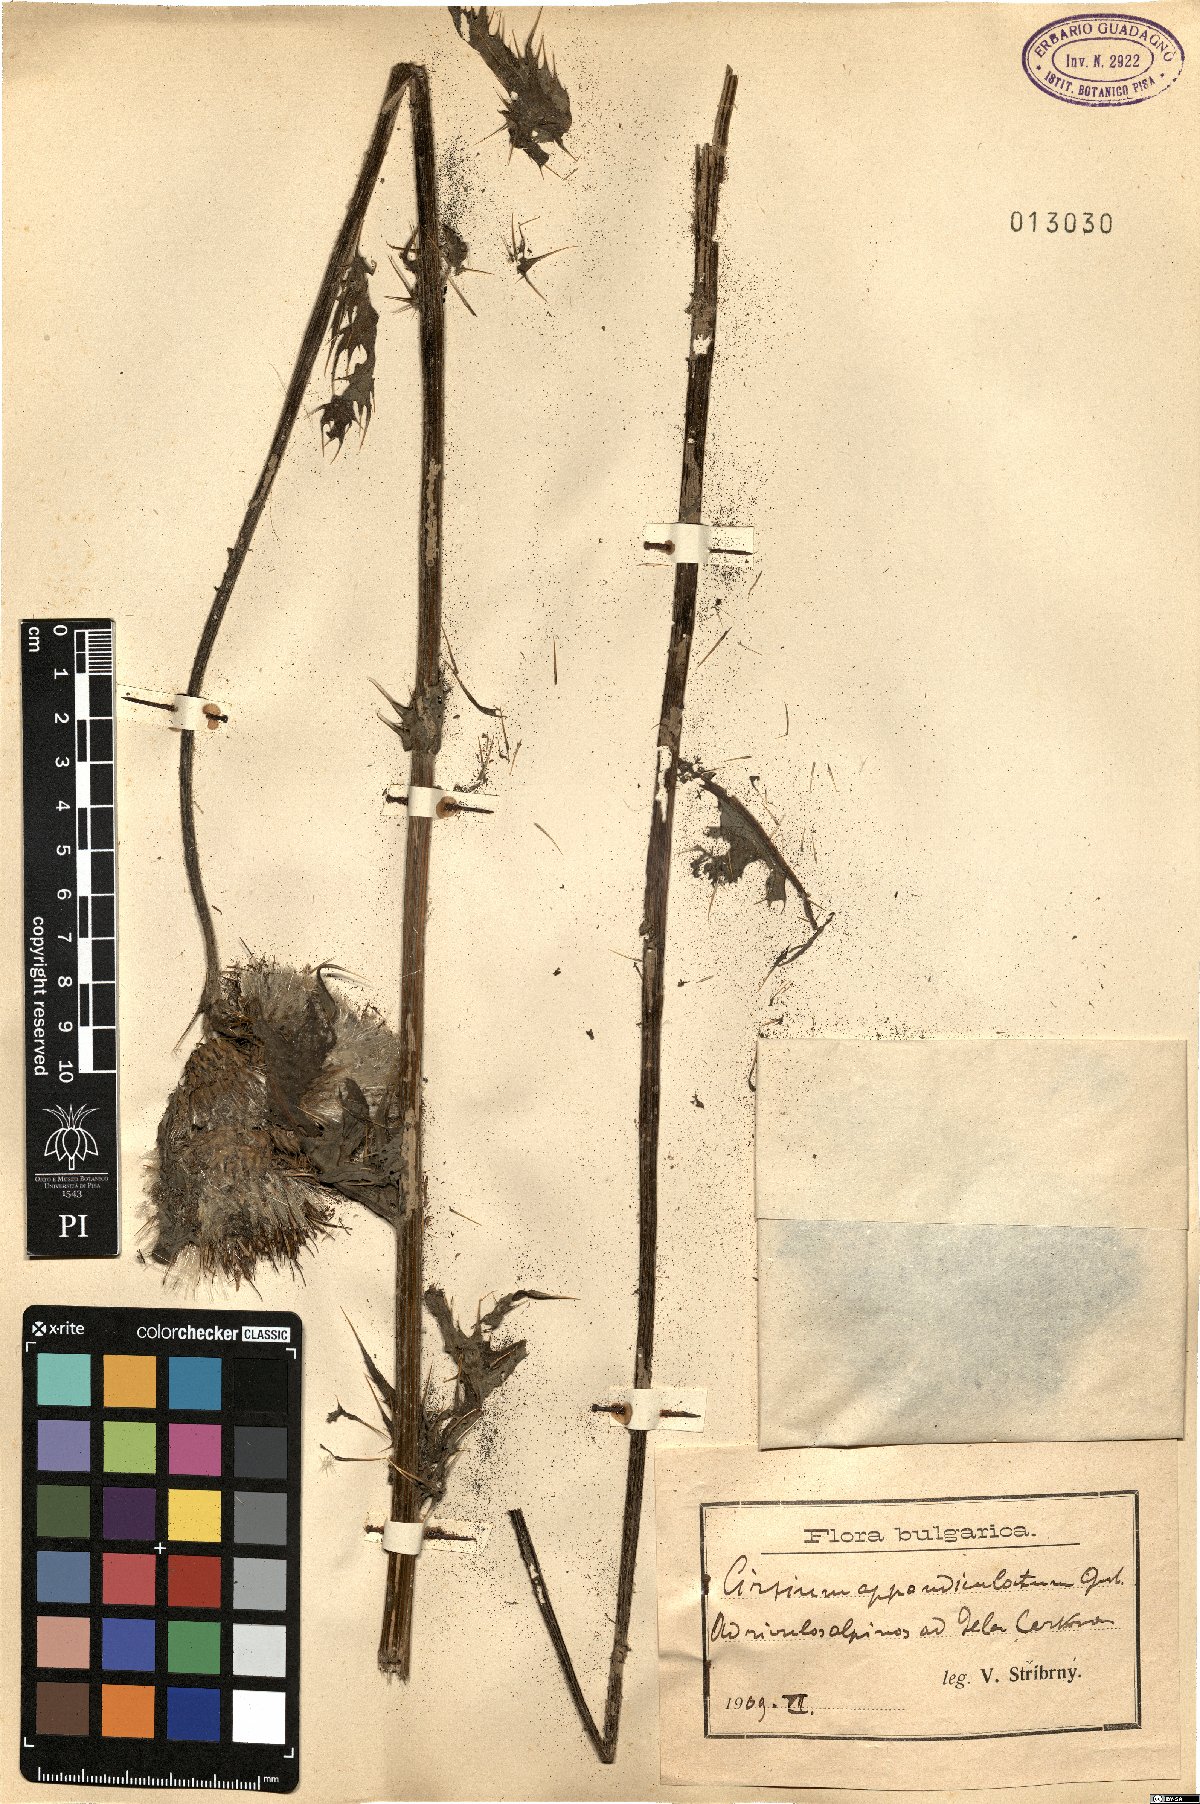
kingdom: Plantae
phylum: Tracheophyta
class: Magnoliopsida
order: Asterales
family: Asteraceae
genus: Cirsium
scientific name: Cirsium appendiculatum
